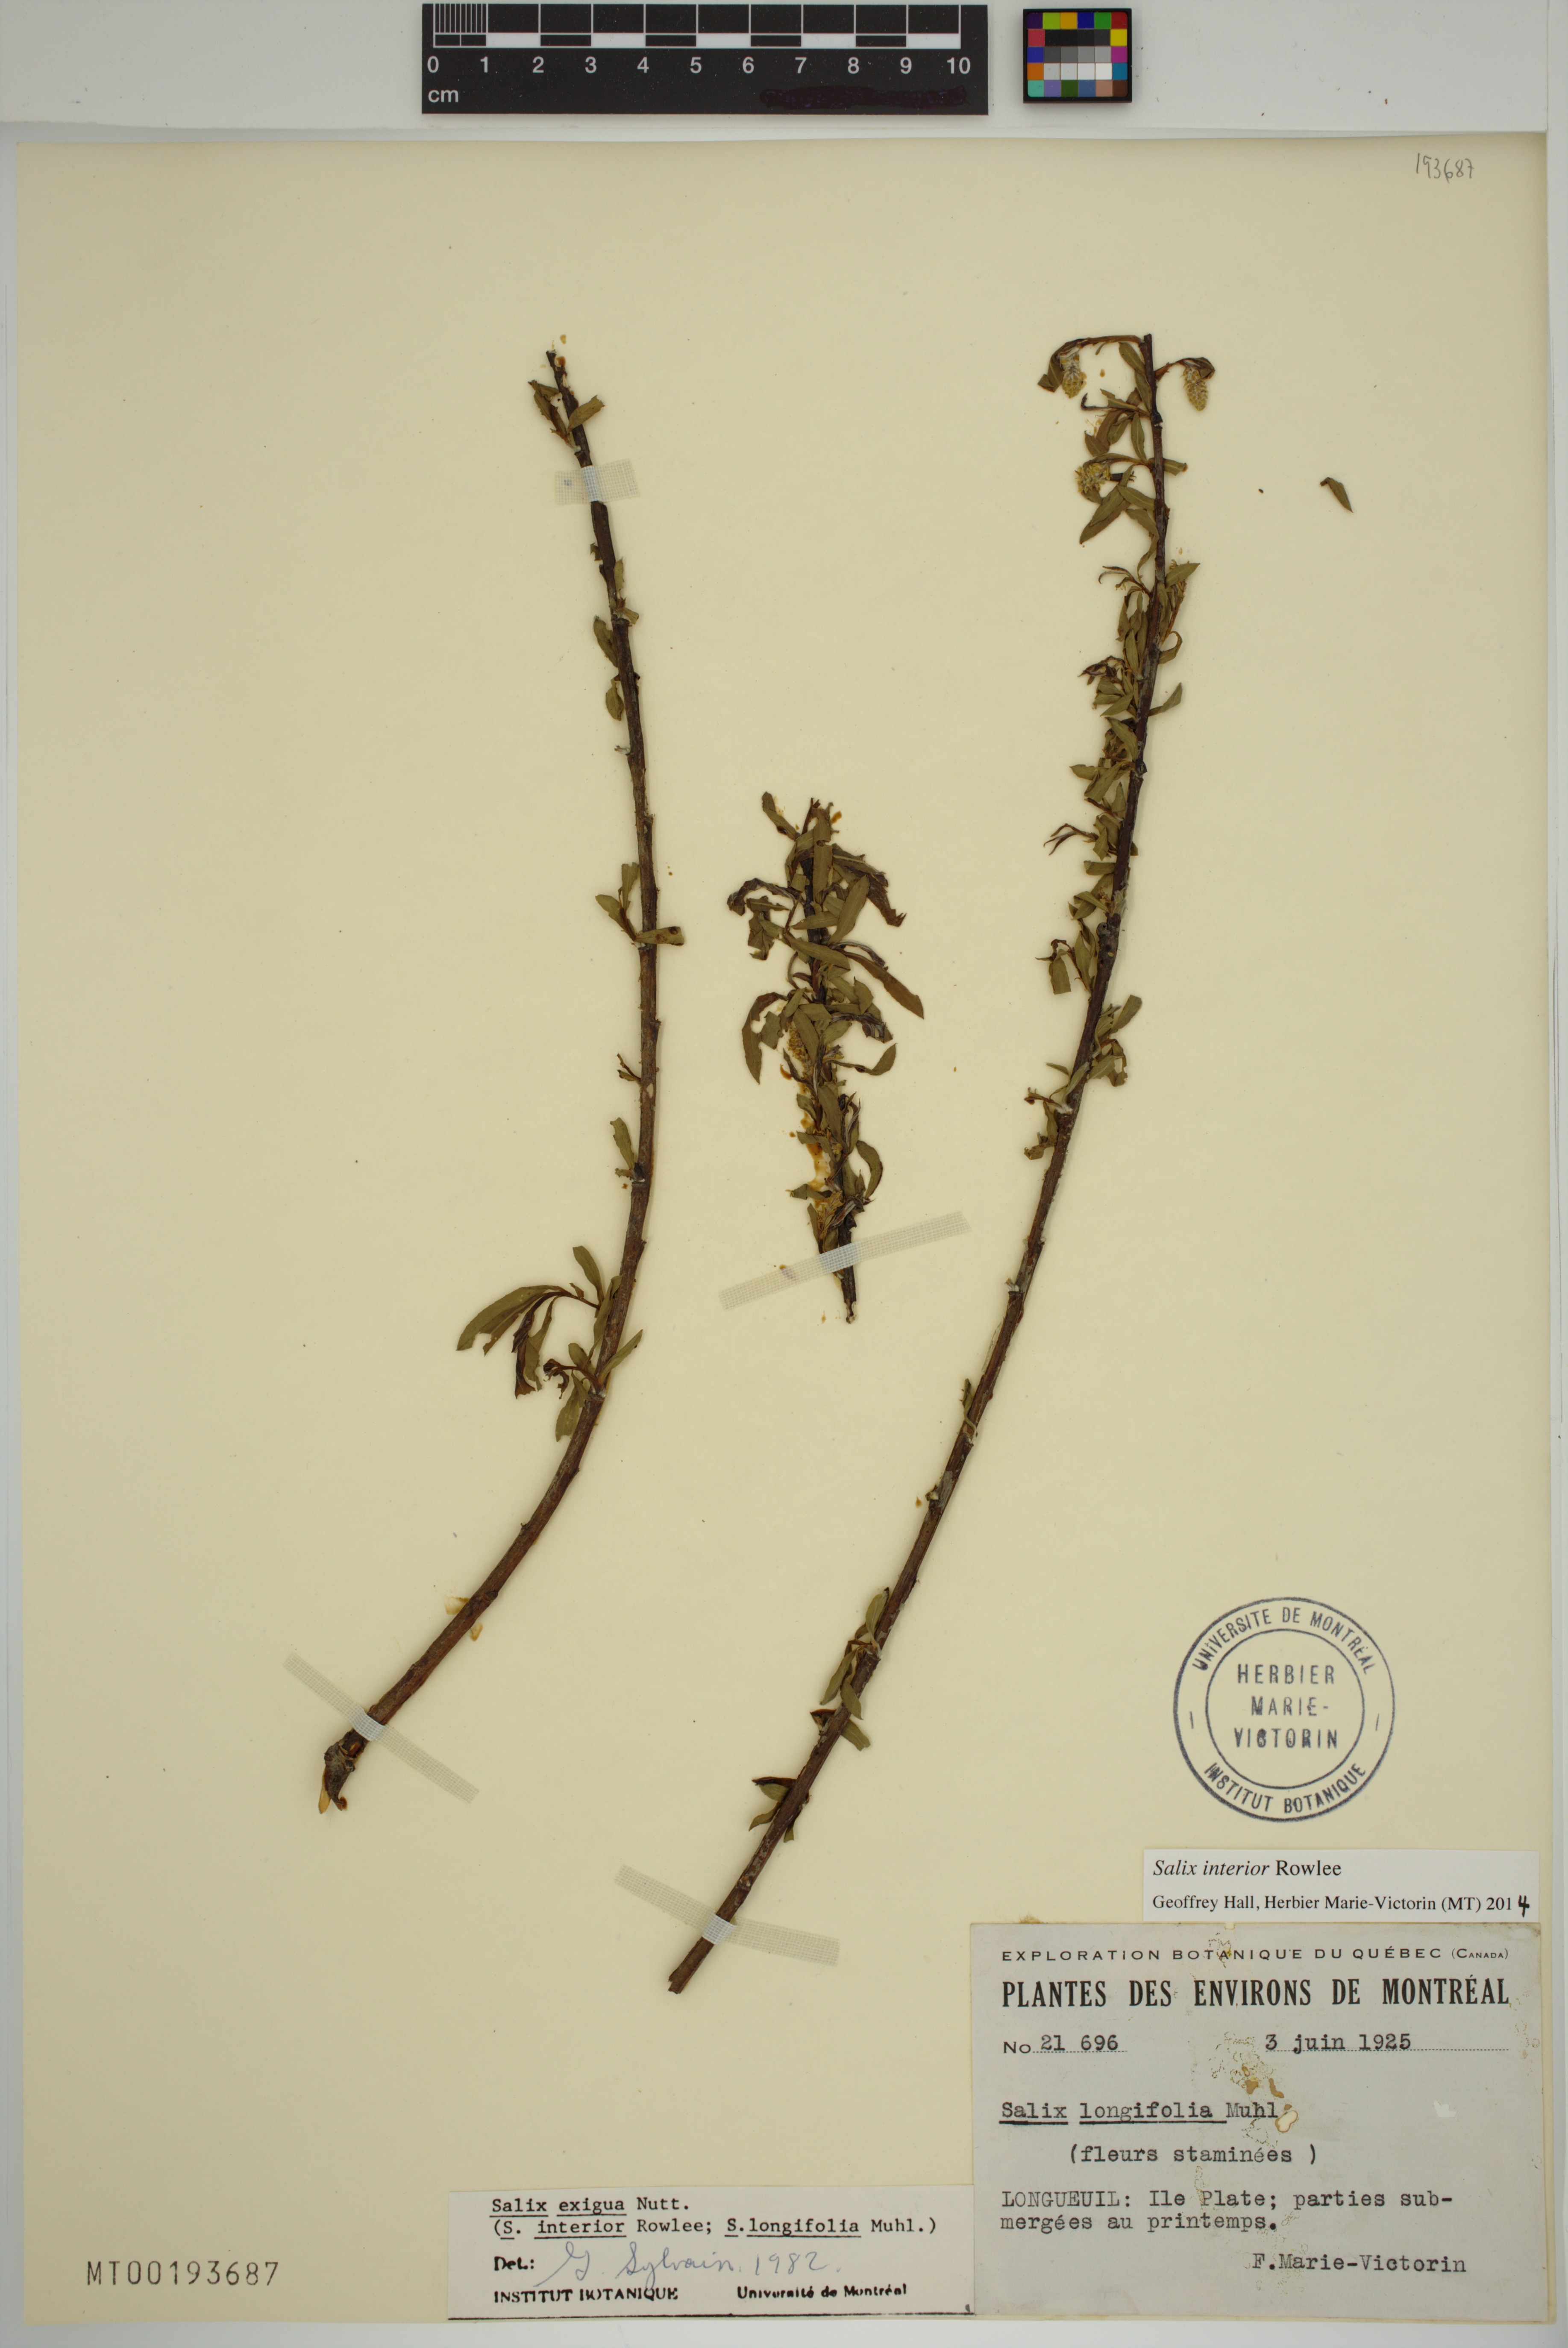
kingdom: Plantae
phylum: Tracheophyta
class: Magnoliopsida
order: Malpighiales
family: Salicaceae
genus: Salix
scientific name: Salix interior
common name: Sandbar willow
